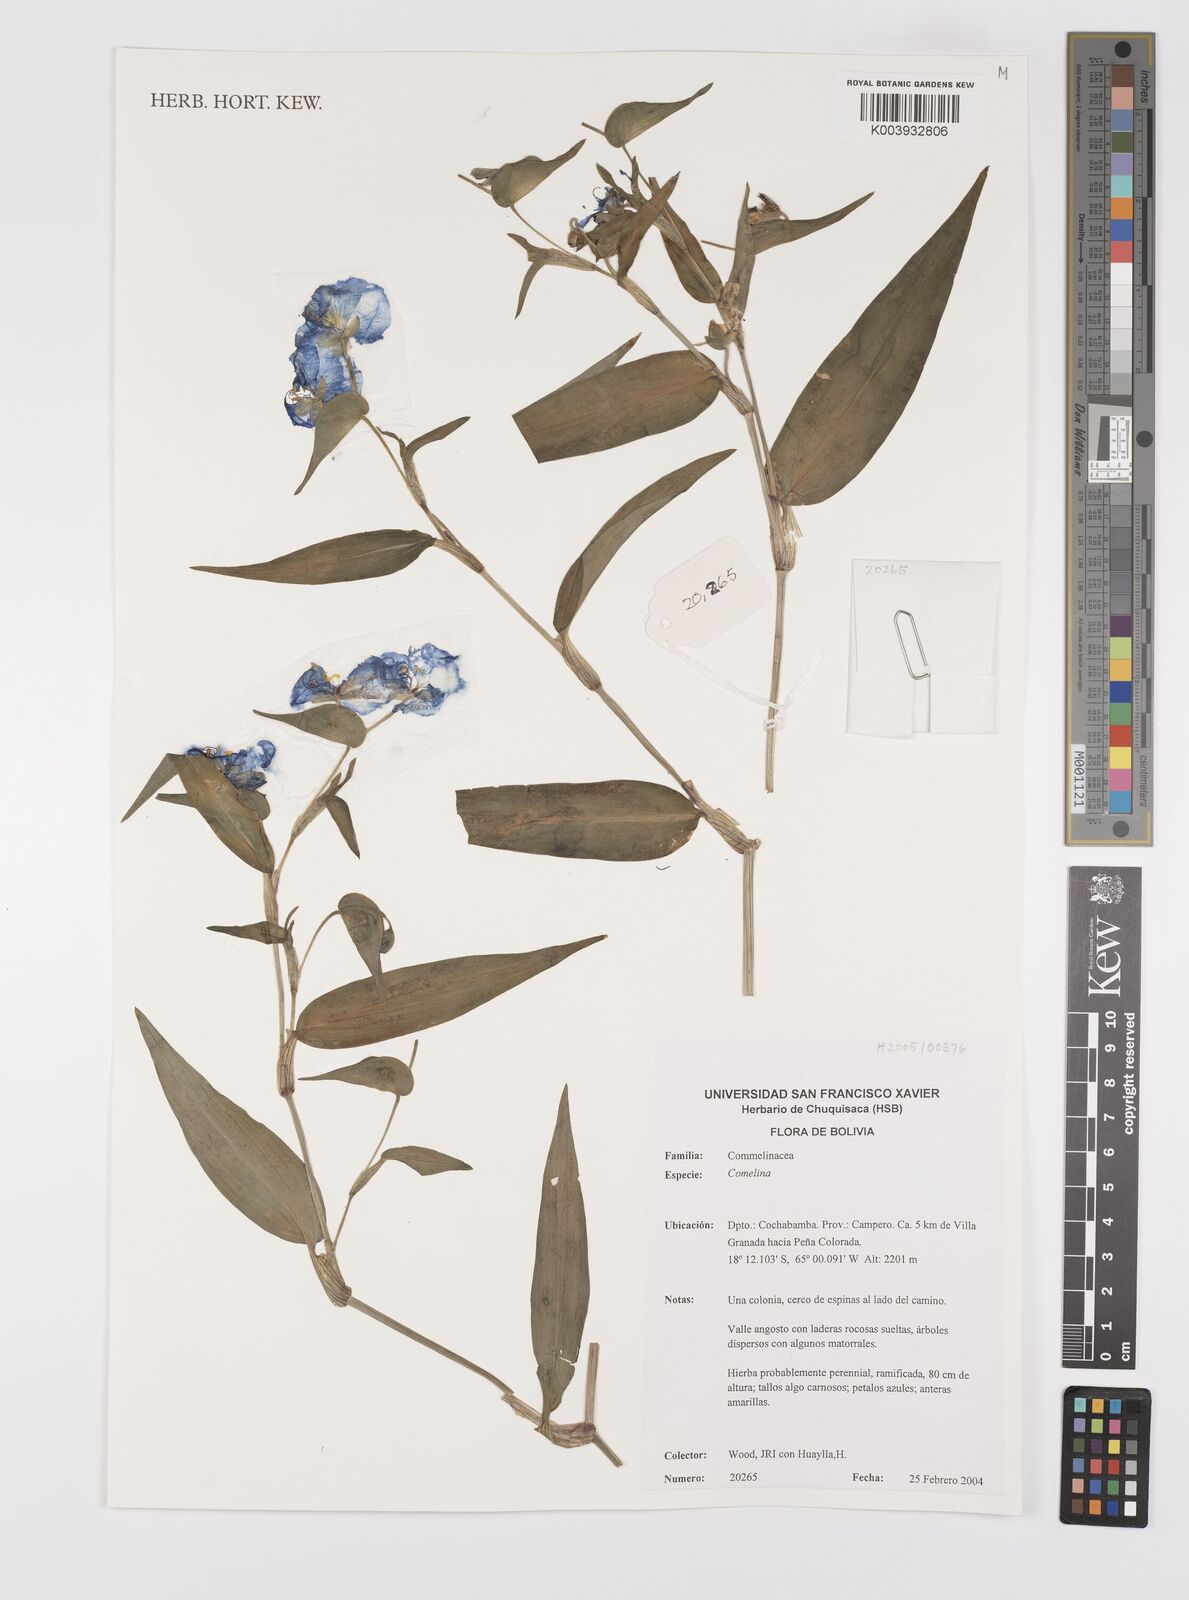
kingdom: Plantae
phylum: Tracheophyta
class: Liliopsida
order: Commelinales
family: Commelinaceae
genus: Commelina
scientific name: Commelina
